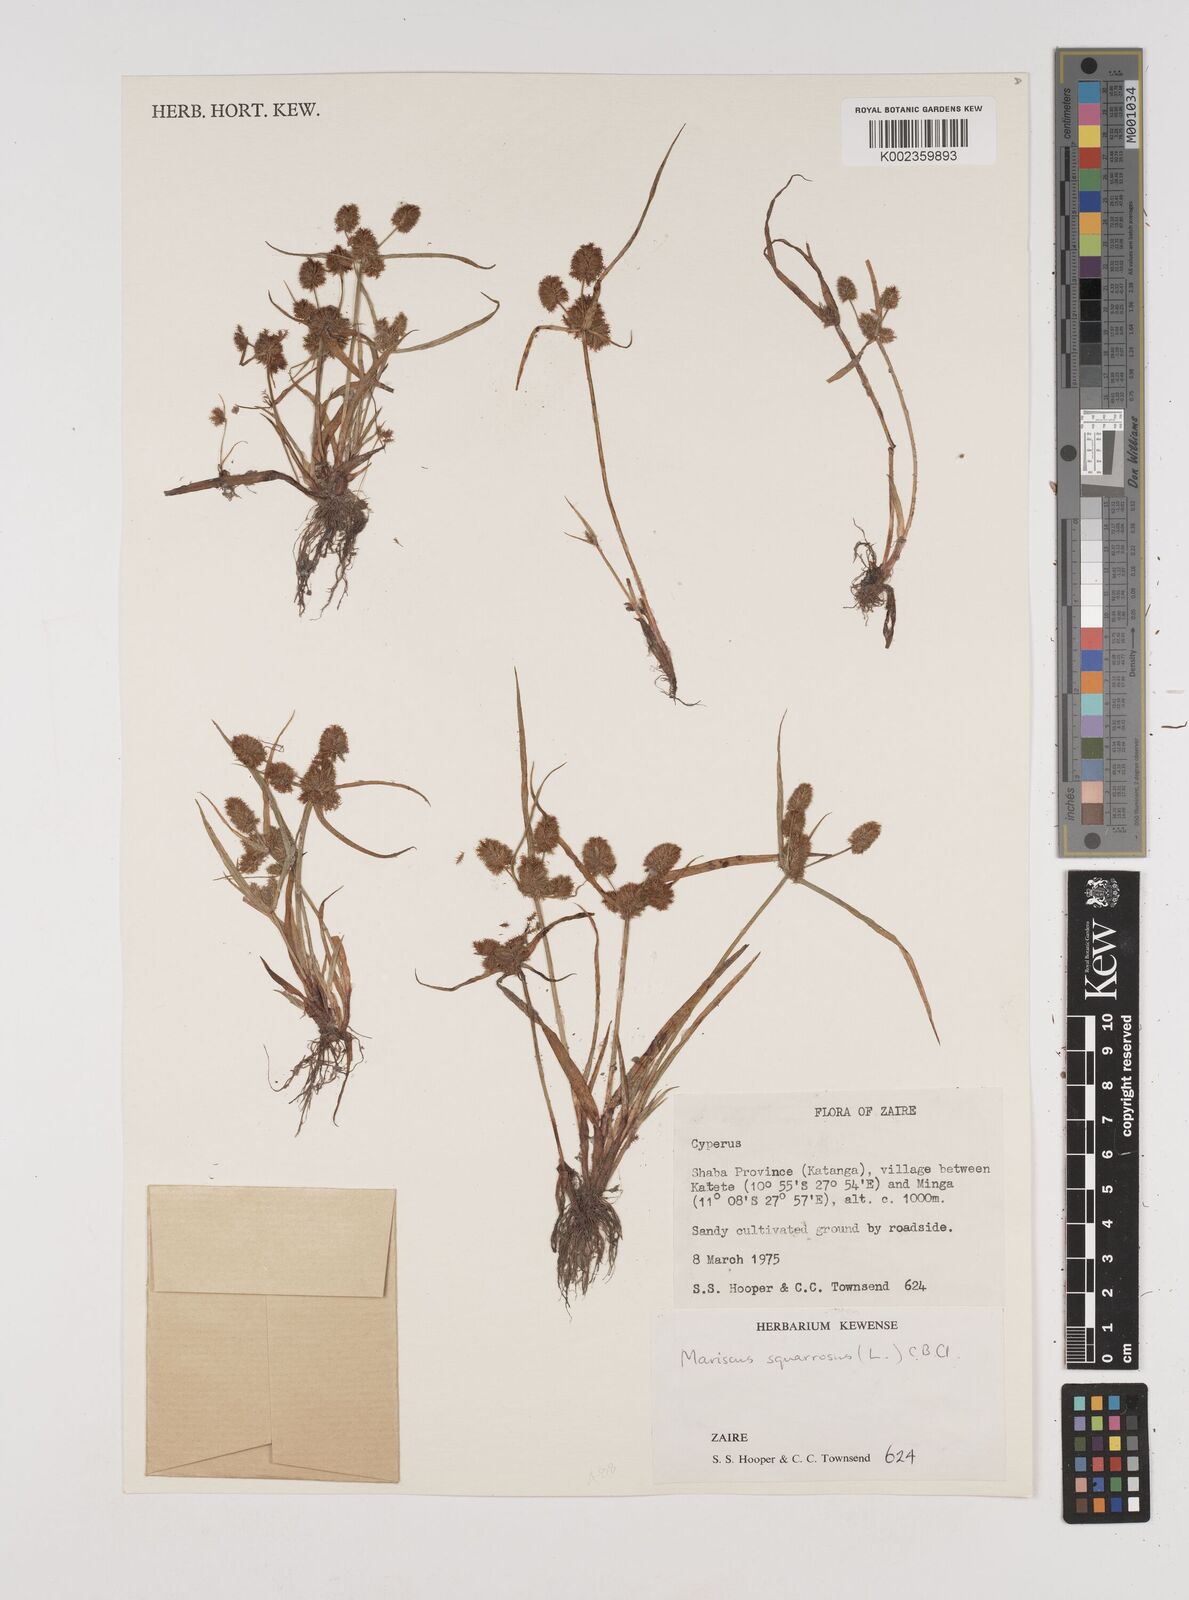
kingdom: Plantae
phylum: Tracheophyta
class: Liliopsida
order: Poales
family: Cyperaceae
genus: Cyperus
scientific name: Cyperus squarrosus
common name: Awned cyperus
